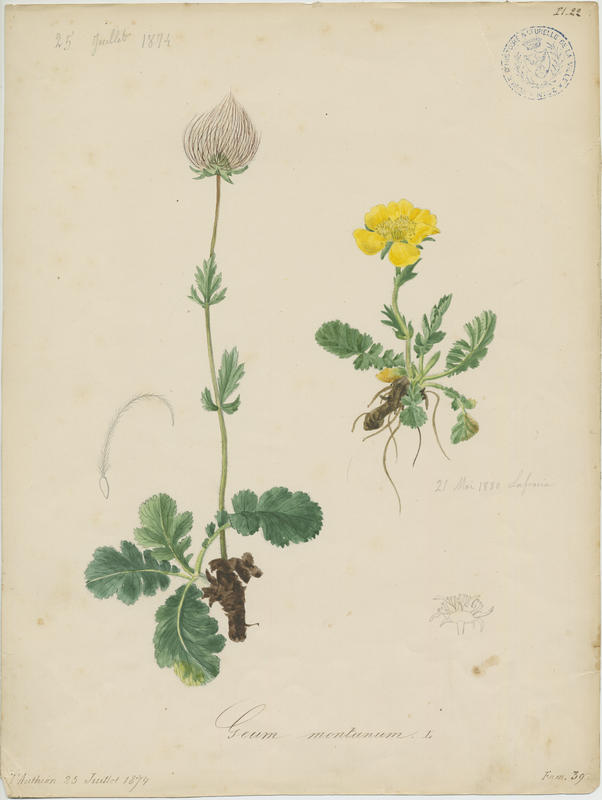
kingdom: Plantae
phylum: Tracheophyta
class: Magnoliopsida
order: Rosales
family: Rosaceae
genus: Geum
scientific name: Geum montanum
